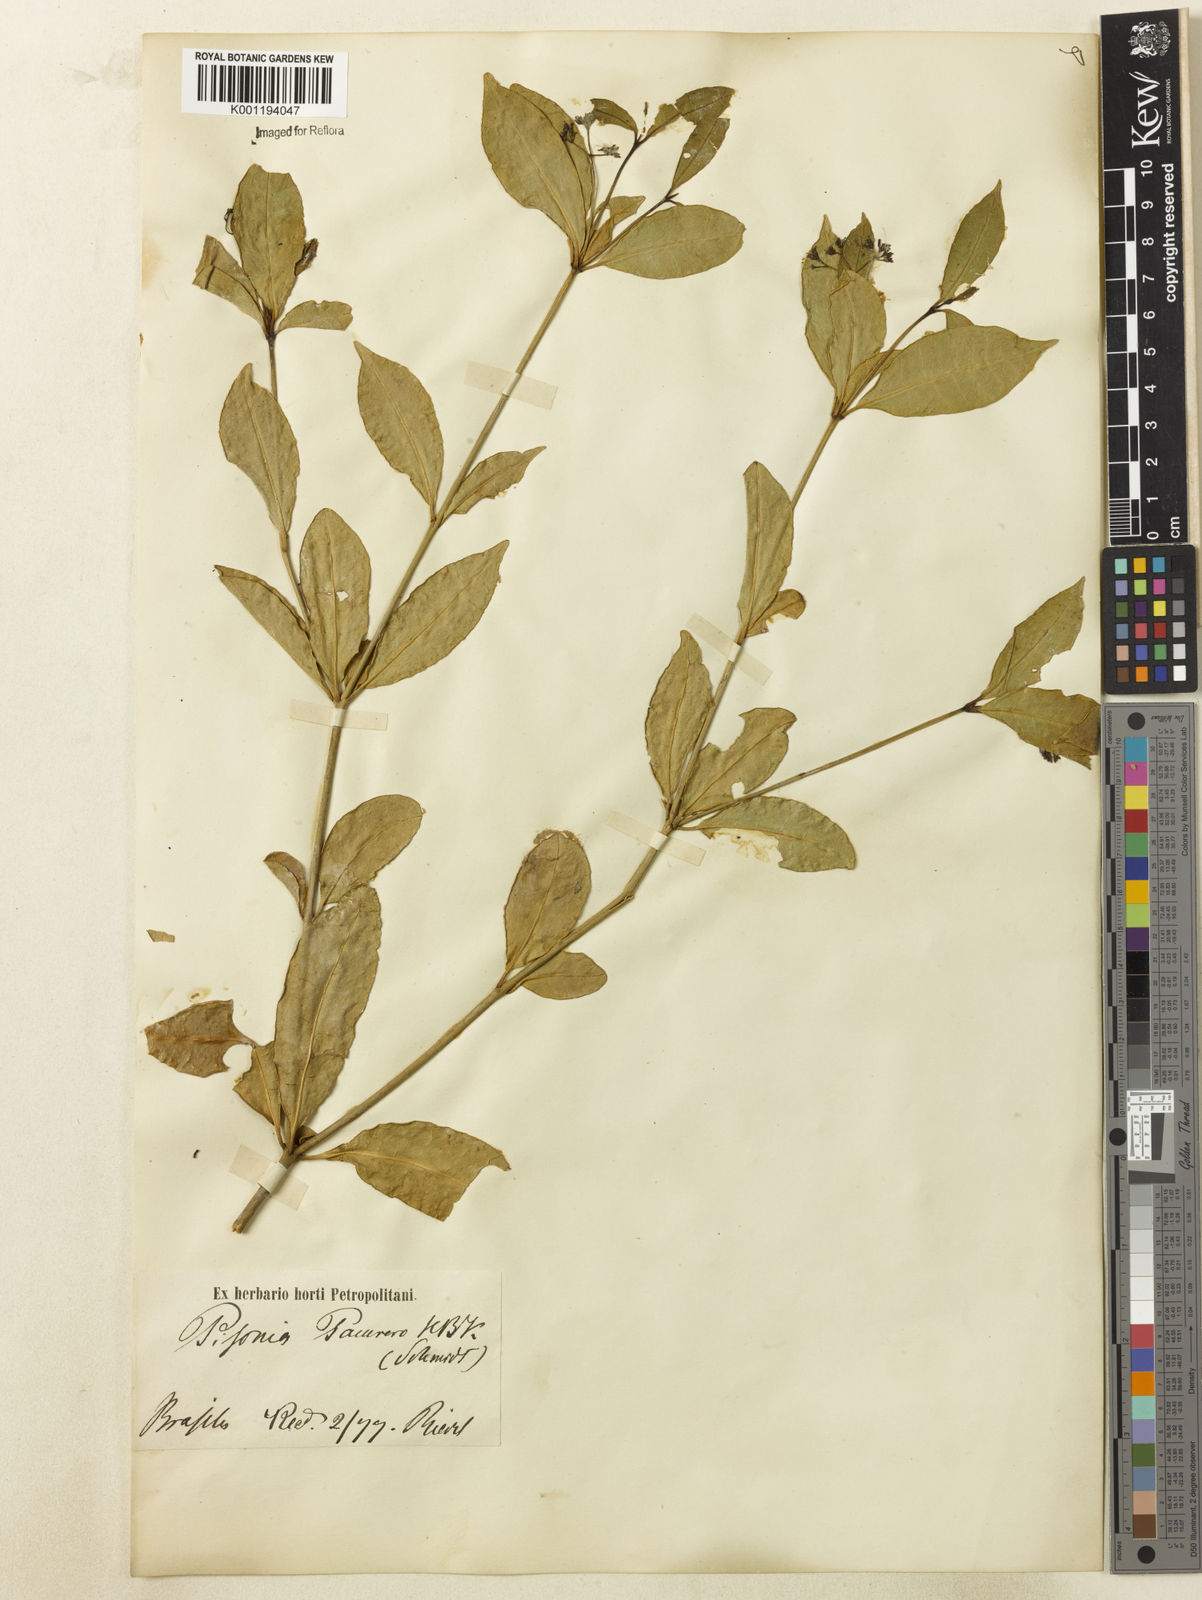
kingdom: Plantae
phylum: Tracheophyta
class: Magnoliopsida
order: Caryophyllales
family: Nyctaginaceae
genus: Guapira
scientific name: Guapira
